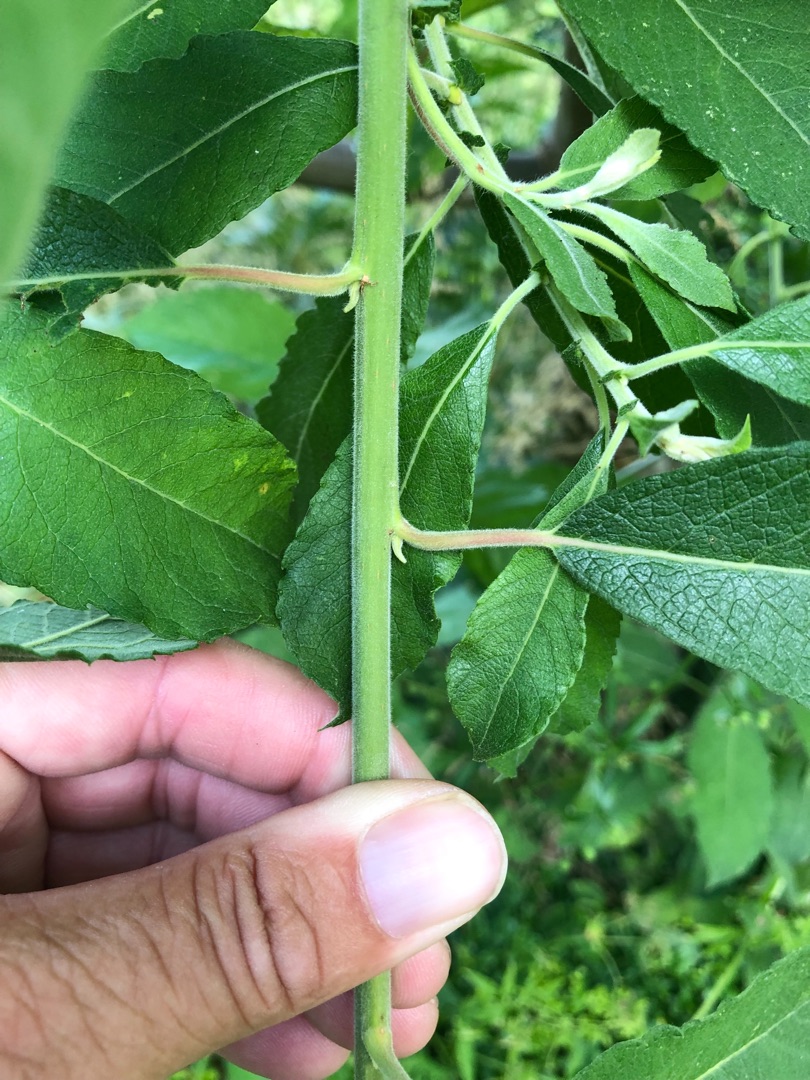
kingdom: Plantae
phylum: Tracheophyta
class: Magnoliopsida
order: Malpighiales
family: Salicaceae
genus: Salix
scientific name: Salix cinerea
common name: Grå-pil
